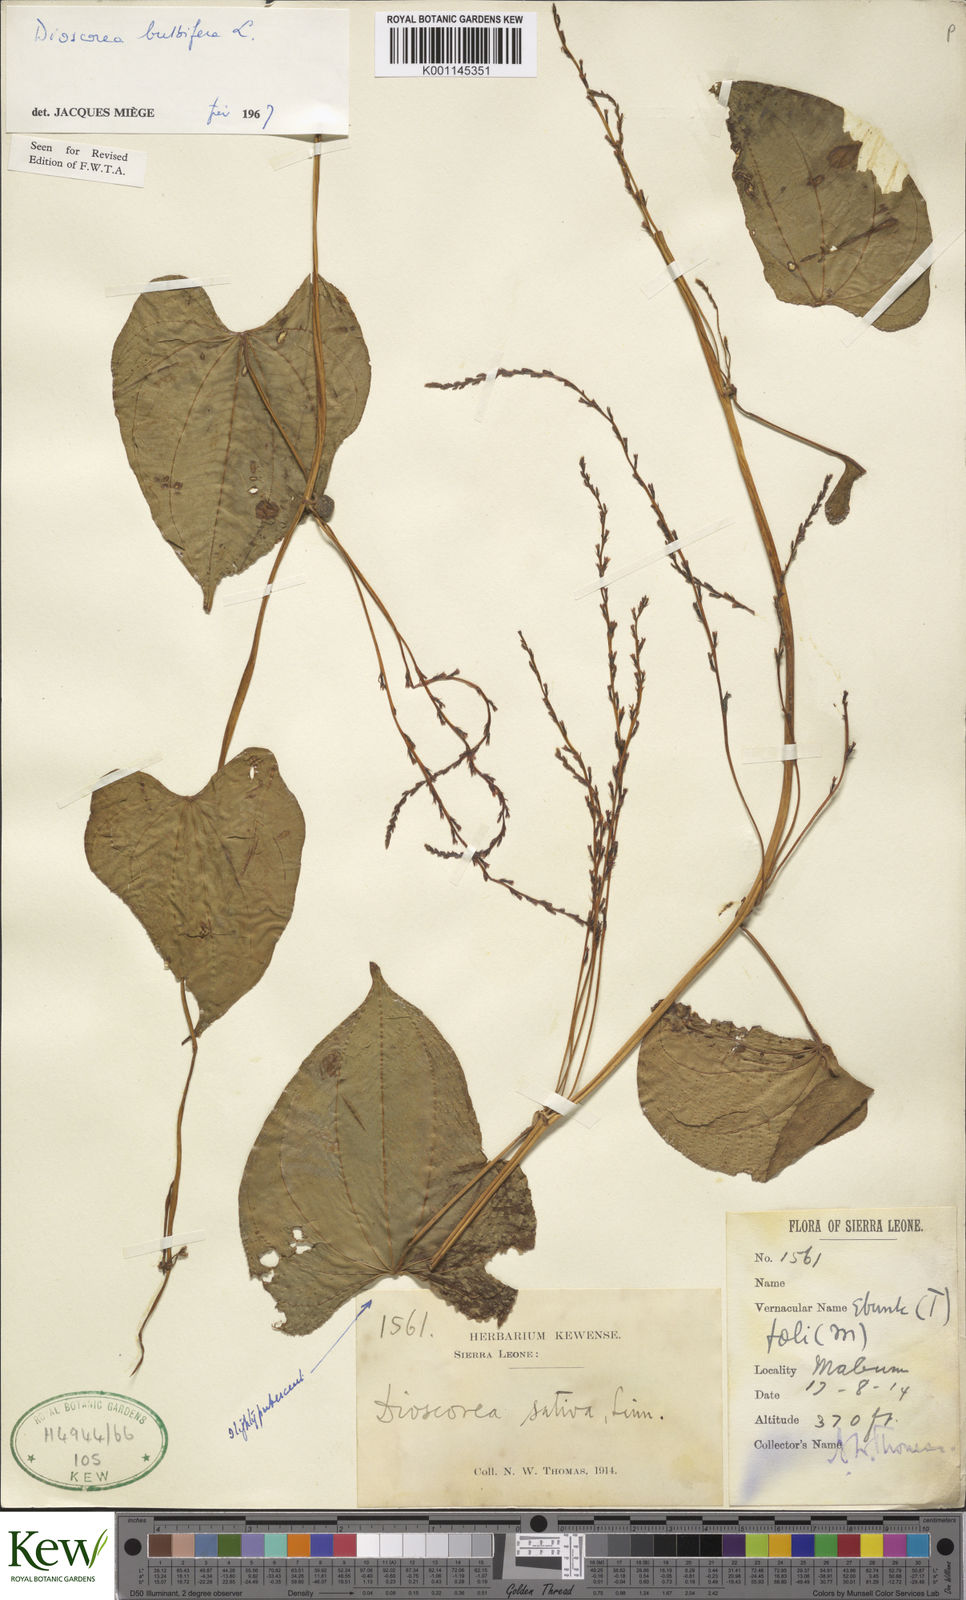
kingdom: Plantae
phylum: Tracheophyta
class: Liliopsida
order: Dioscoreales
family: Dioscoreaceae
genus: Dioscorea
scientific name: Dioscorea bulbifera
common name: Air yam
